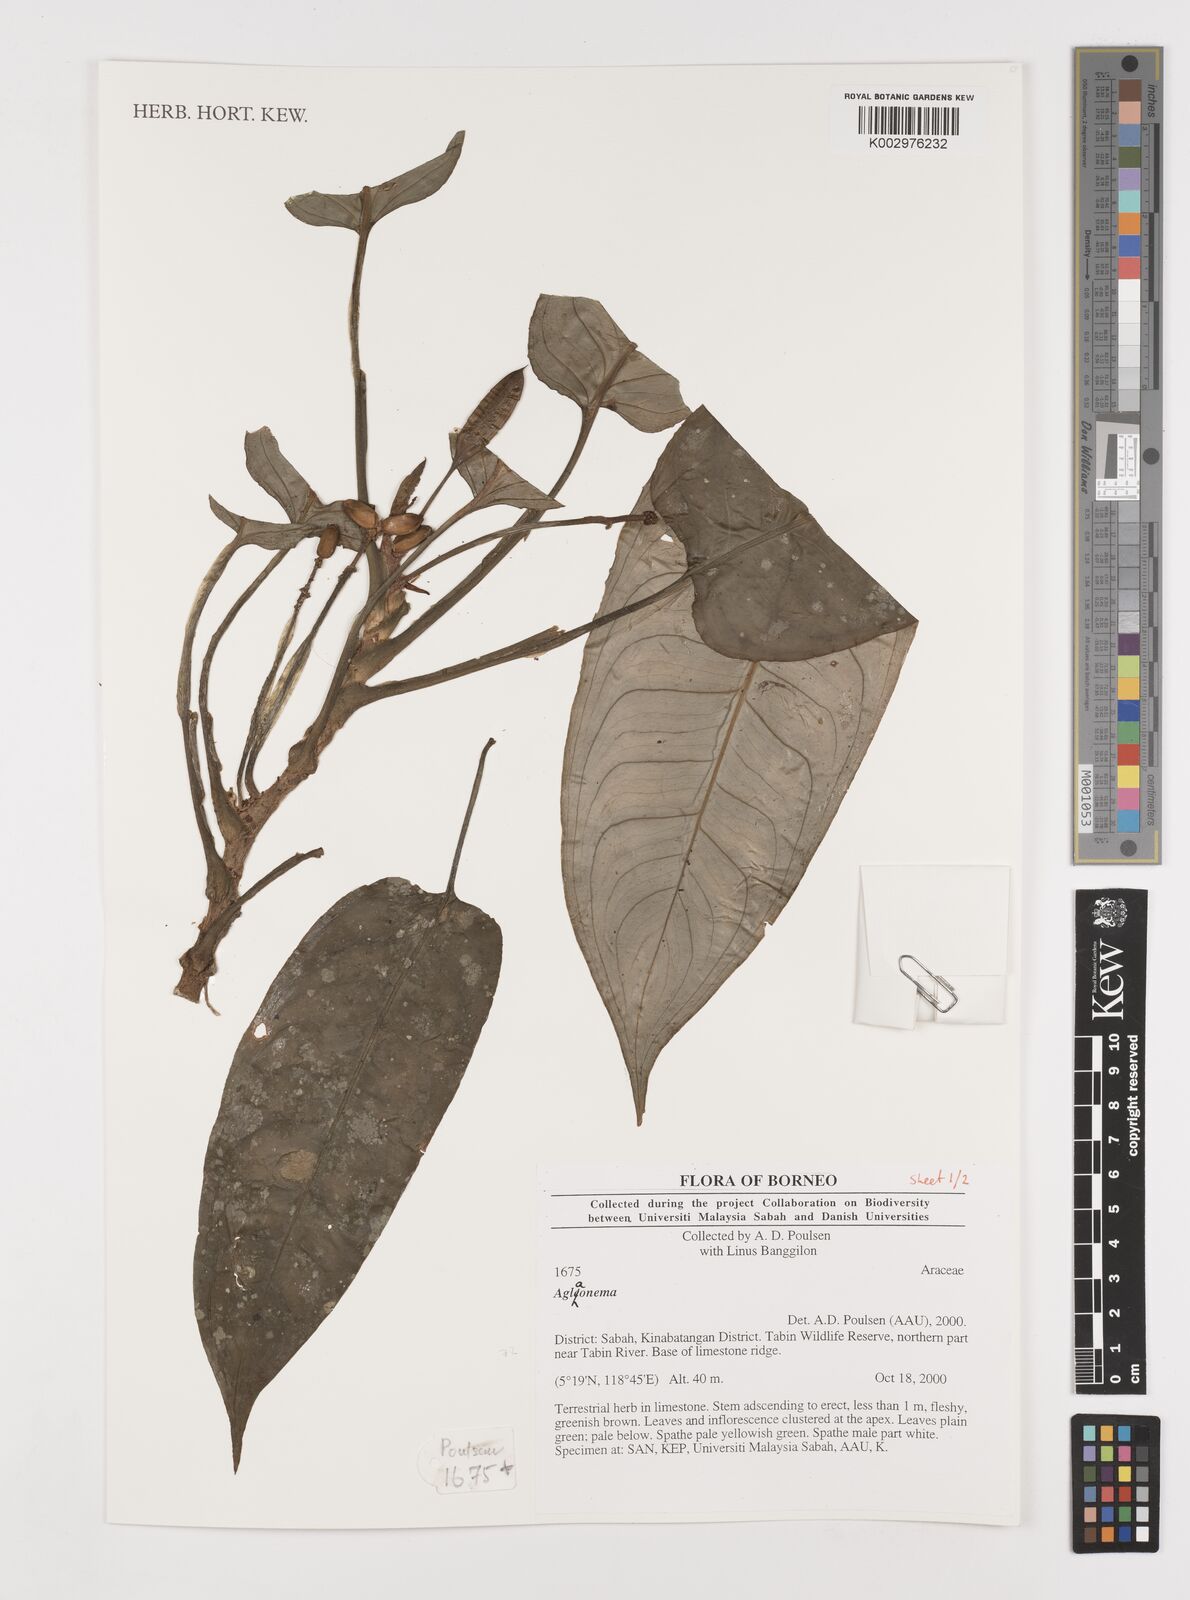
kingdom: Plantae
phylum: Tracheophyta
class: Liliopsida
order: Alismatales
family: Araceae
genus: Aglaonema
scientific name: Aglaonema
